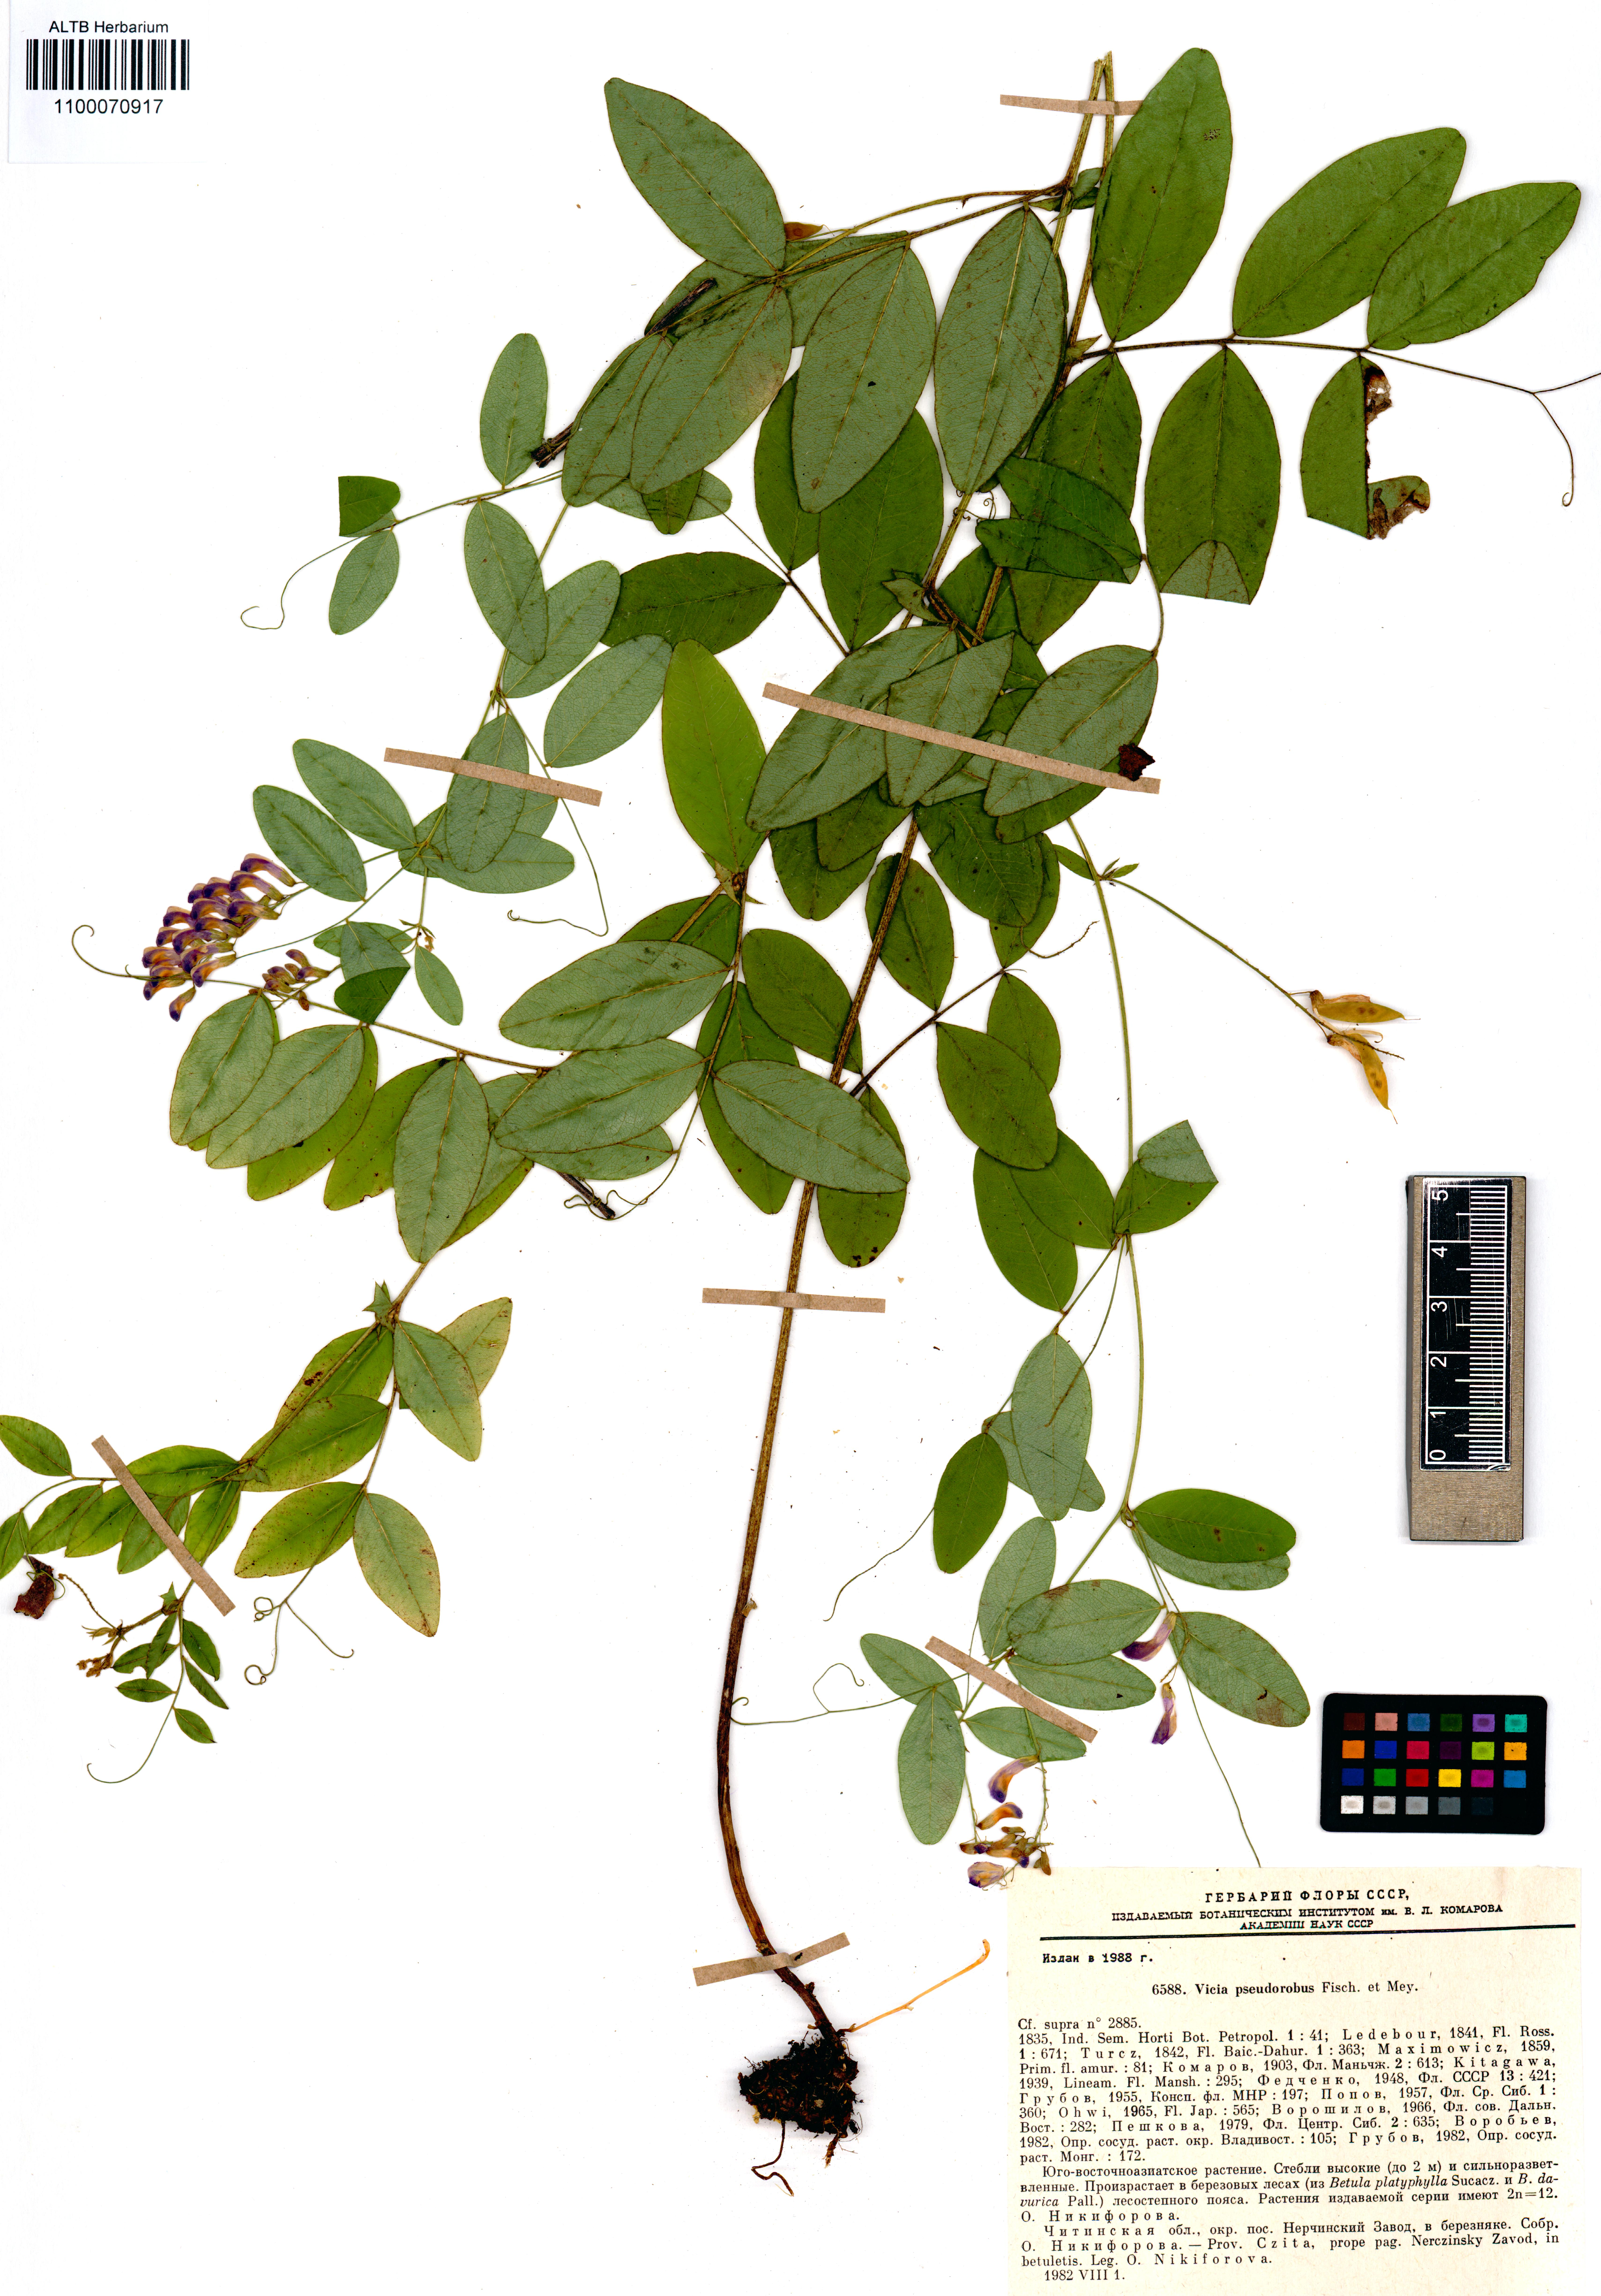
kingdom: Plantae
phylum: Tracheophyta
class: Magnoliopsida
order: Fabales
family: Fabaceae
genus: Vicia
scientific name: Vicia pseudo-orobus
